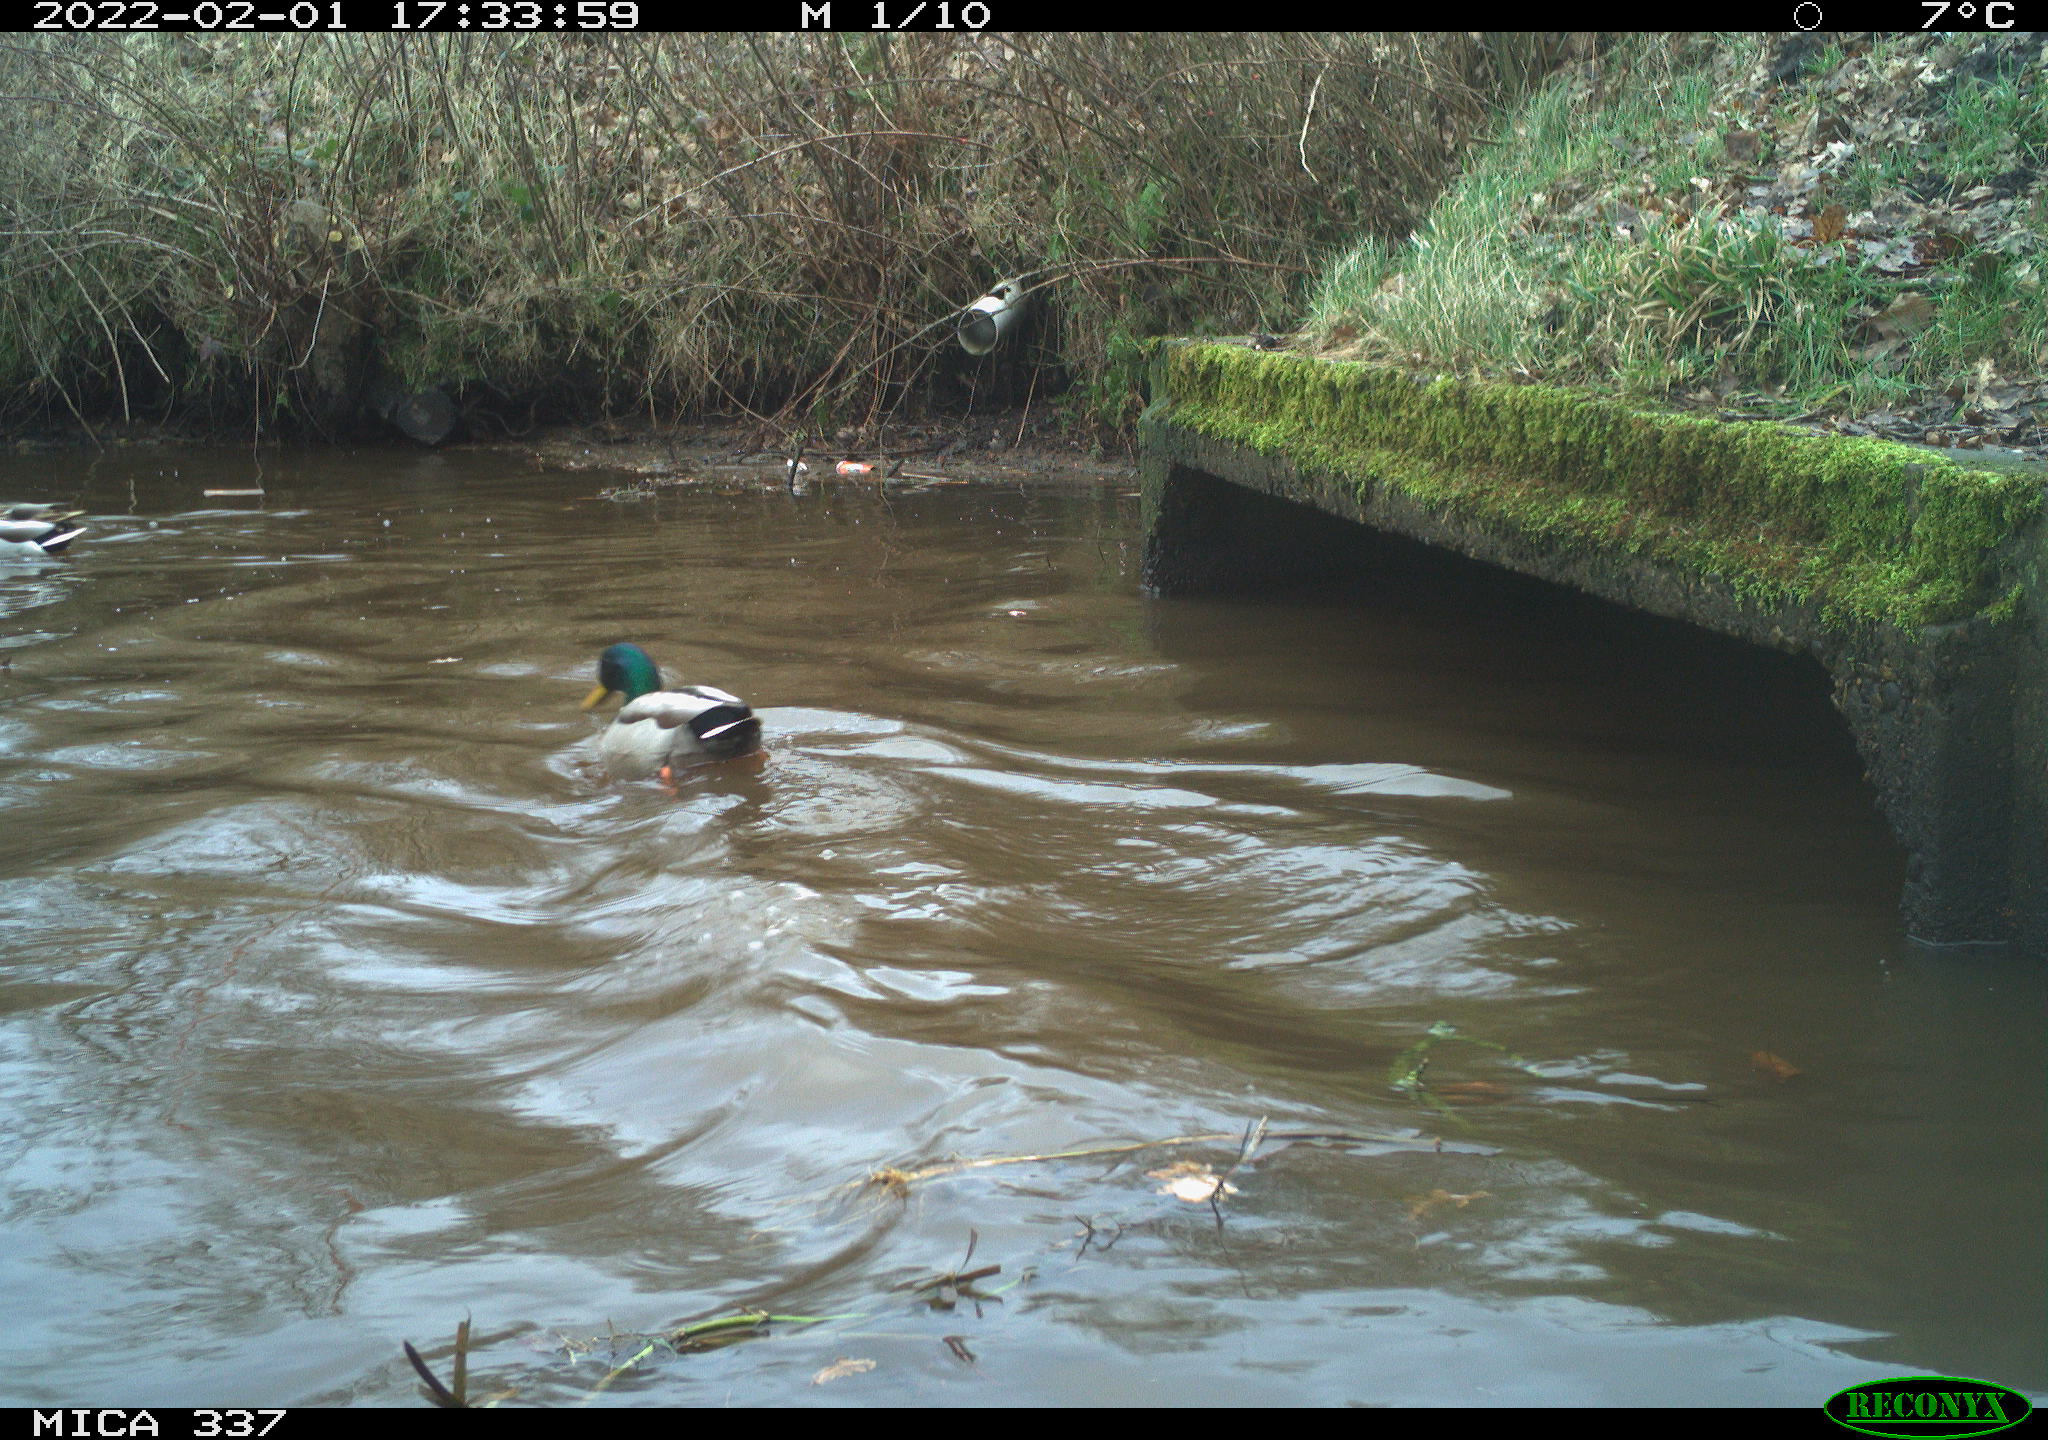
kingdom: Animalia
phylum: Chordata
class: Aves
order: Anseriformes
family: Anatidae
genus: Anas
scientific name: Anas platyrhynchos
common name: Mallard
